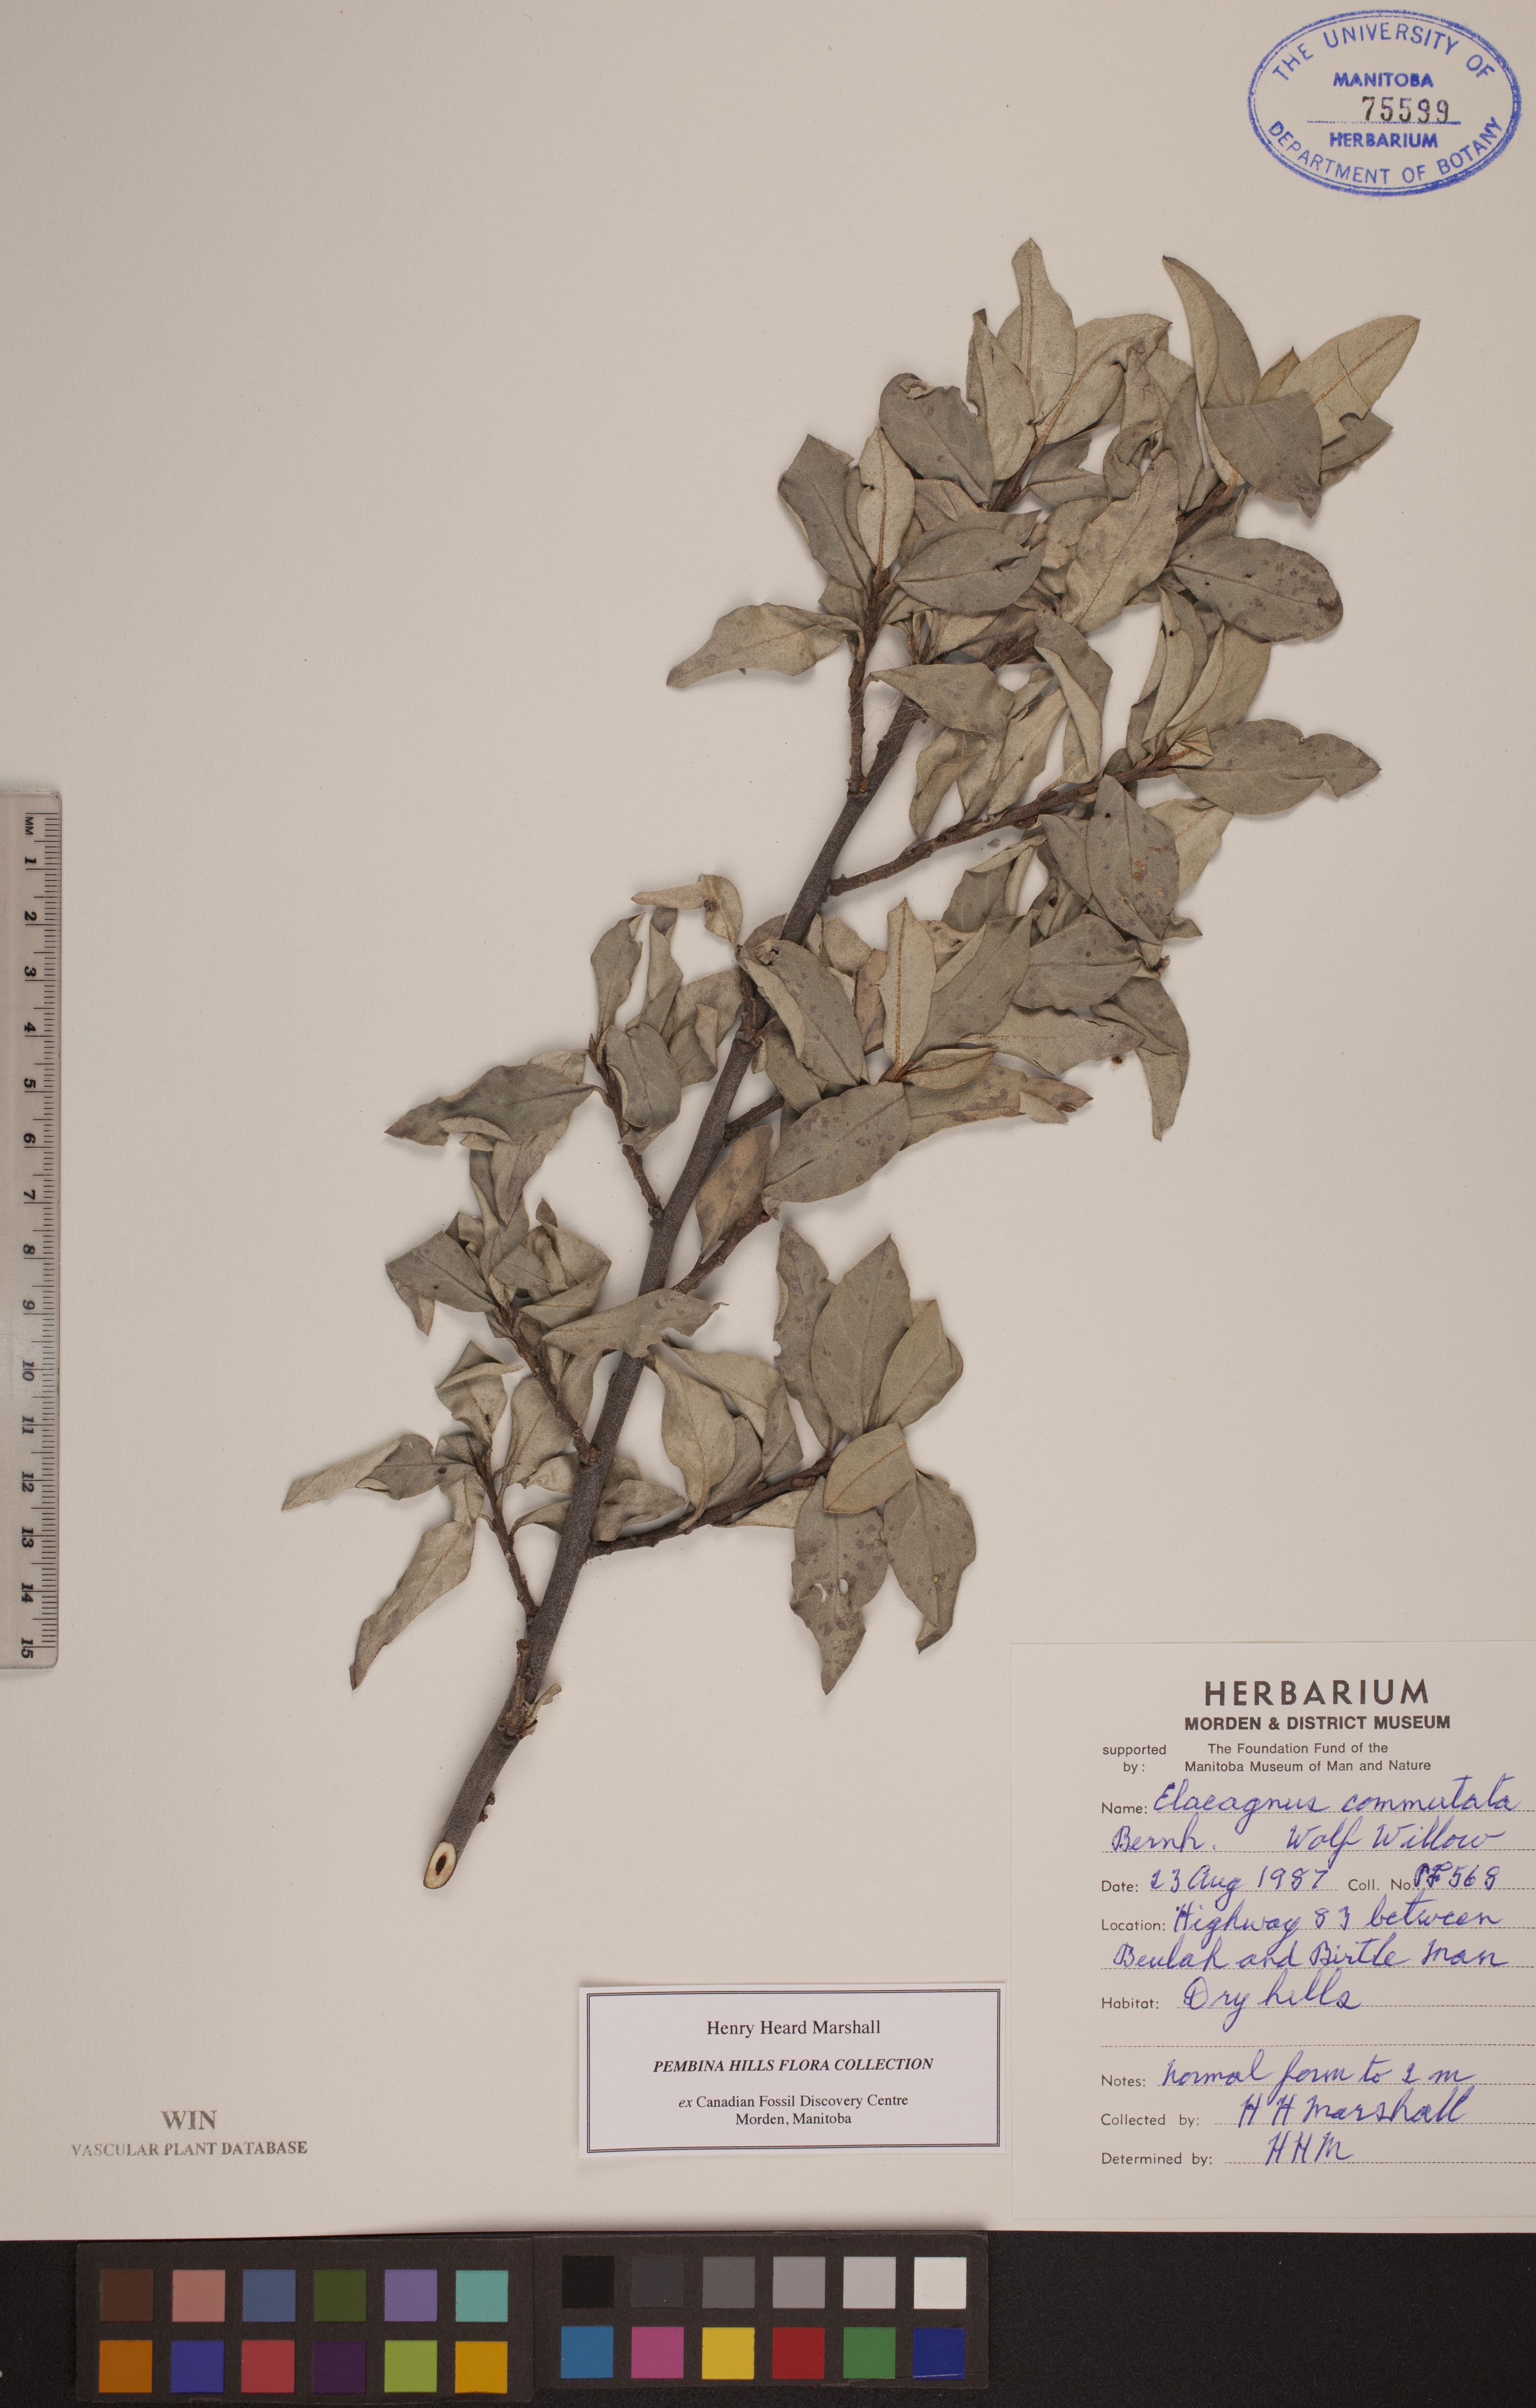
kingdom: Plantae
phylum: Tracheophyta
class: Magnoliopsida
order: Rosales
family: Elaeagnaceae
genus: Elaeagnus
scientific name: Elaeagnus commutata
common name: Silverberry
